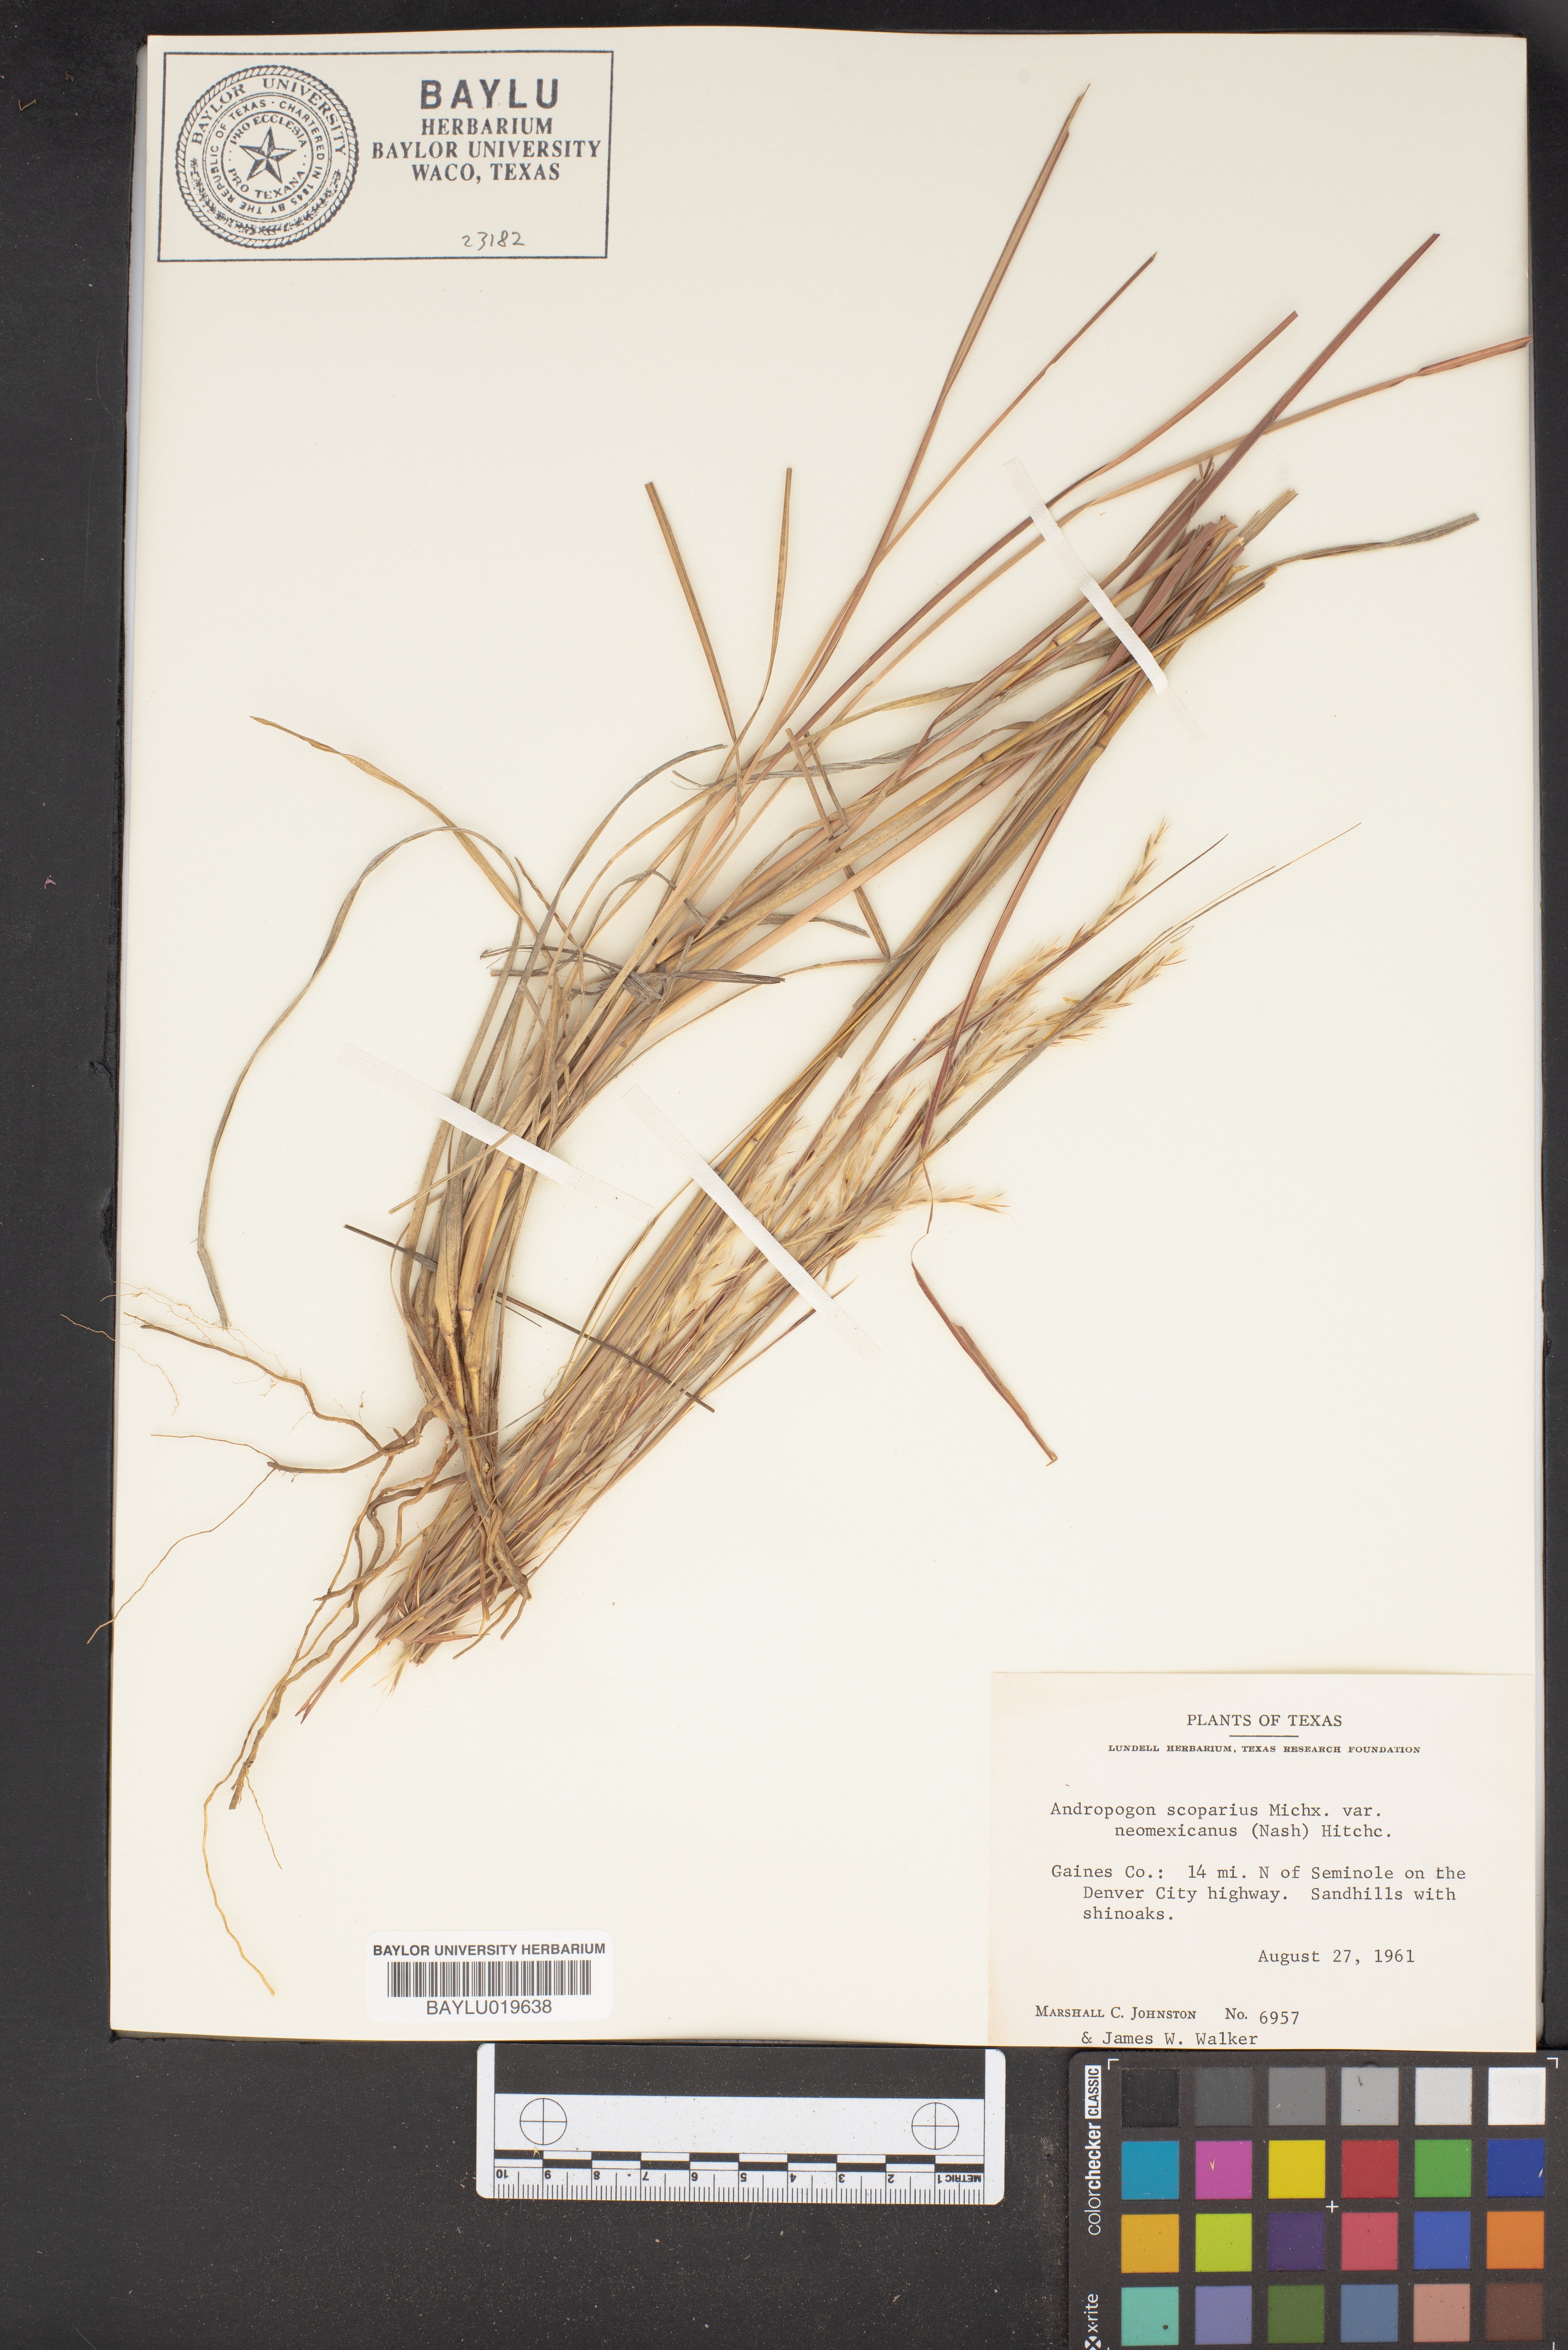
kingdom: Plantae
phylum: Tracheophyta
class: Liliopsida
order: Poales
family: Poaceae
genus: Schizachyrium
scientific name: Schizachyrium scoparium
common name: Little bluestem
